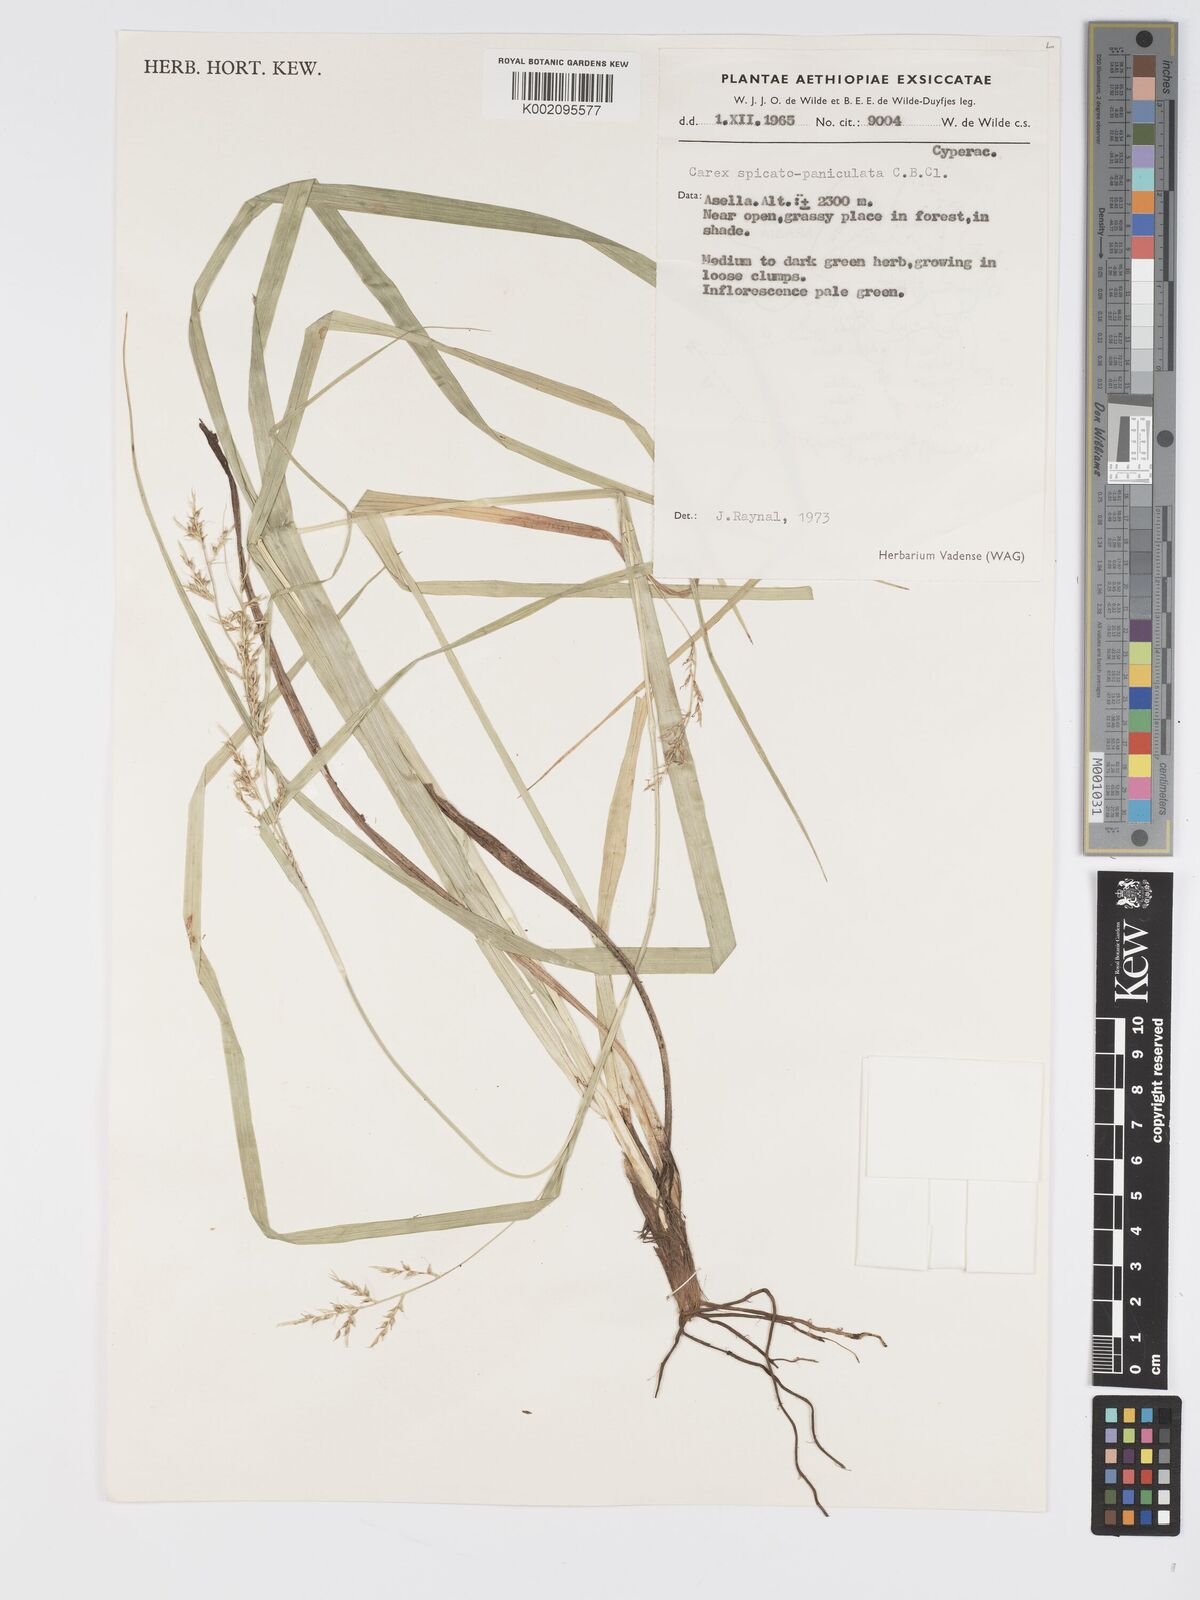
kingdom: Plantae
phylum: Tracheophyta
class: Liliopsida
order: Poales
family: Cyperaceae
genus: Carex
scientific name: Carex chlorosaccus
